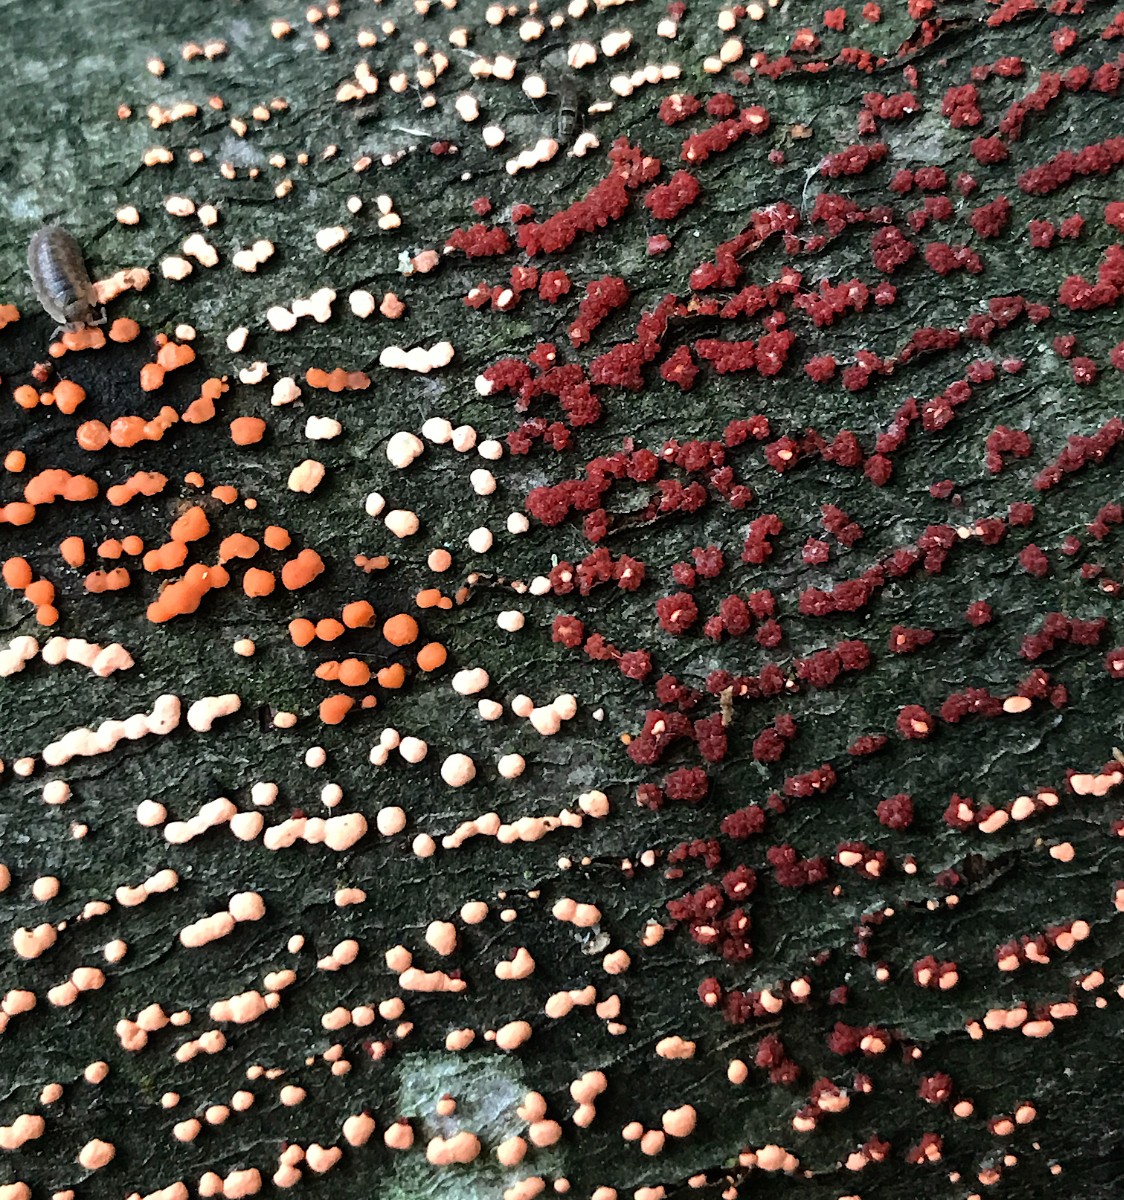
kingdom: Fungi
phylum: Ascomycota
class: Sordariomycetes
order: Hypocreales
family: Nectriaceae
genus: Nectria
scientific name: Nectria cinnabarina
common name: almindelig cinnobersvamp
